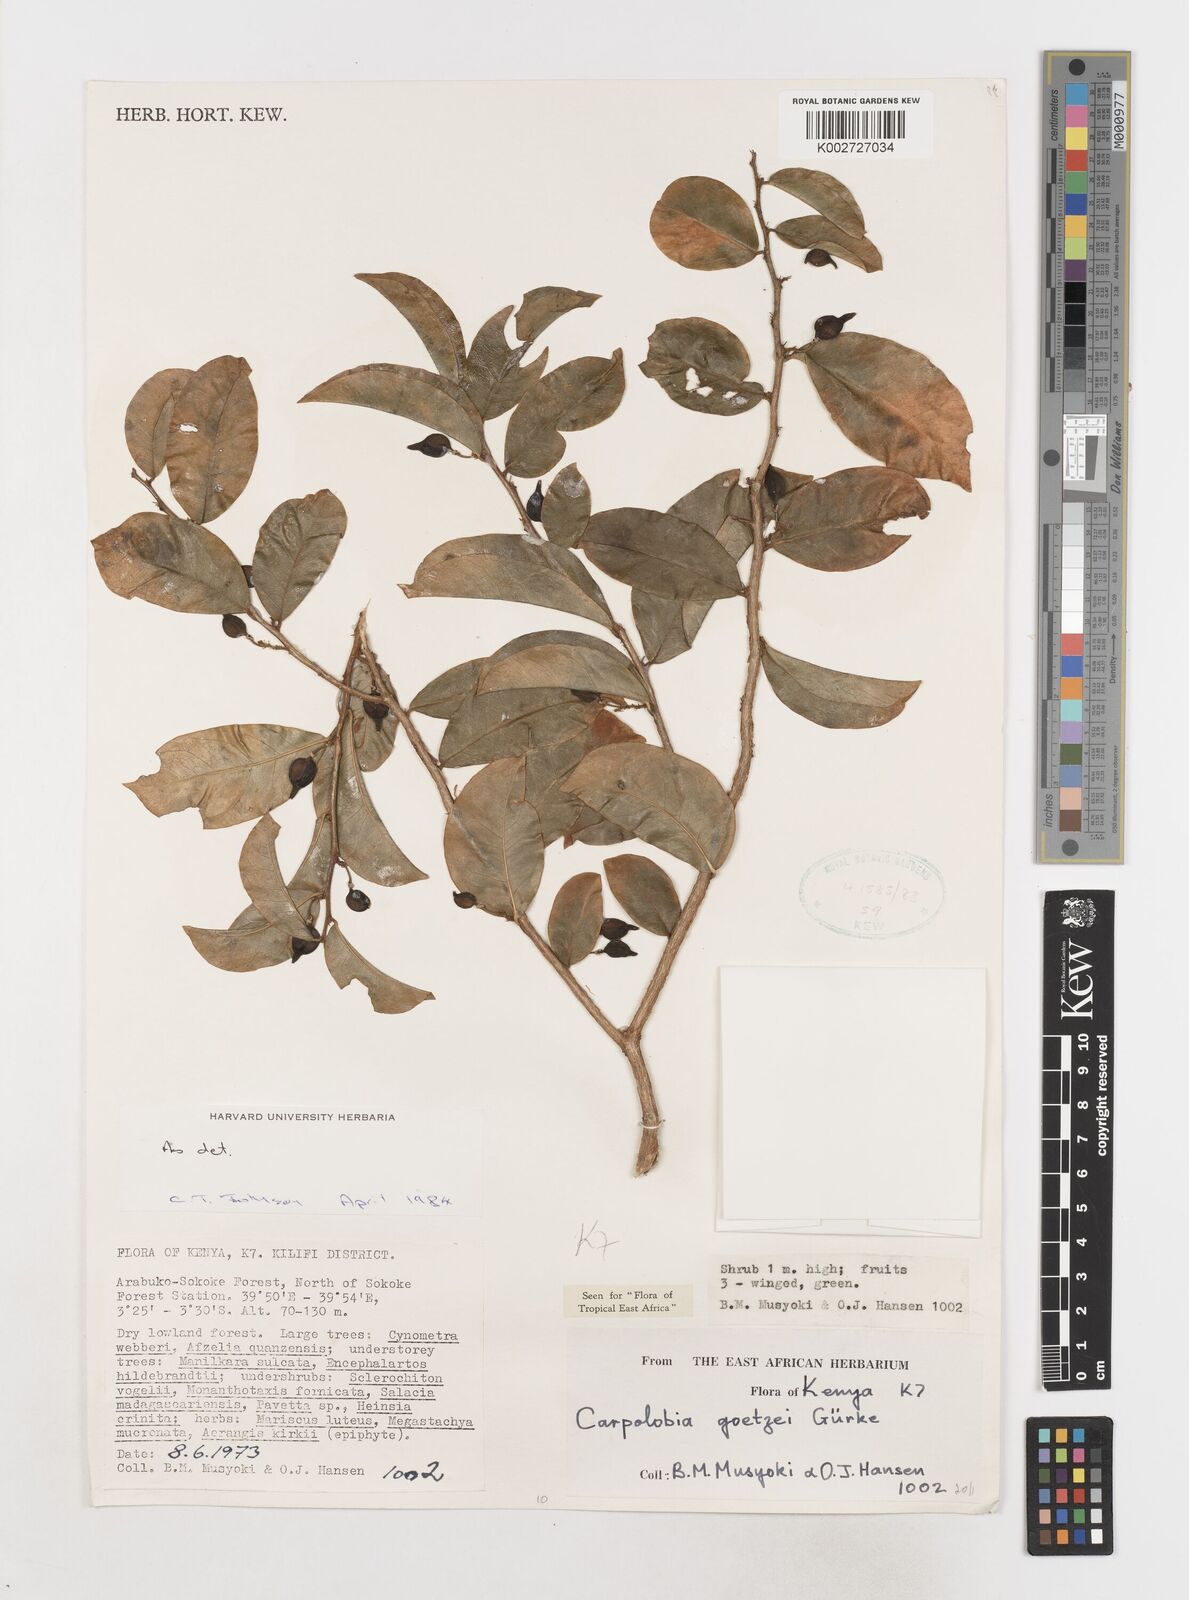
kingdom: Plantae
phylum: Tracheophyta
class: Magnoliopsida
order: Fabales
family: Polygalaceae
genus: Carpolobia
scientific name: Carpolobia goetzei
